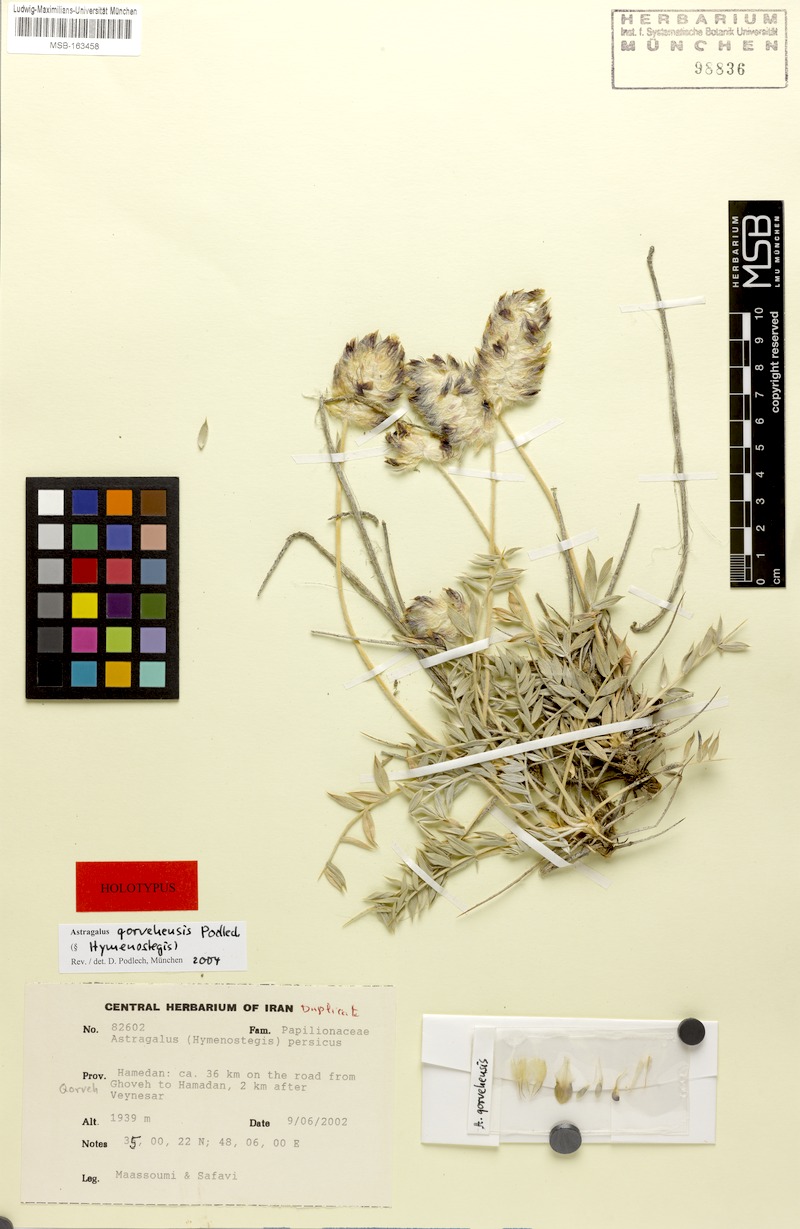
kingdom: Plantae
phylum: Tracheophyta
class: Magnoliopsida
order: Fabales
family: Fabaceae
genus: Astragalus
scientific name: Astragalus qorvehensis
